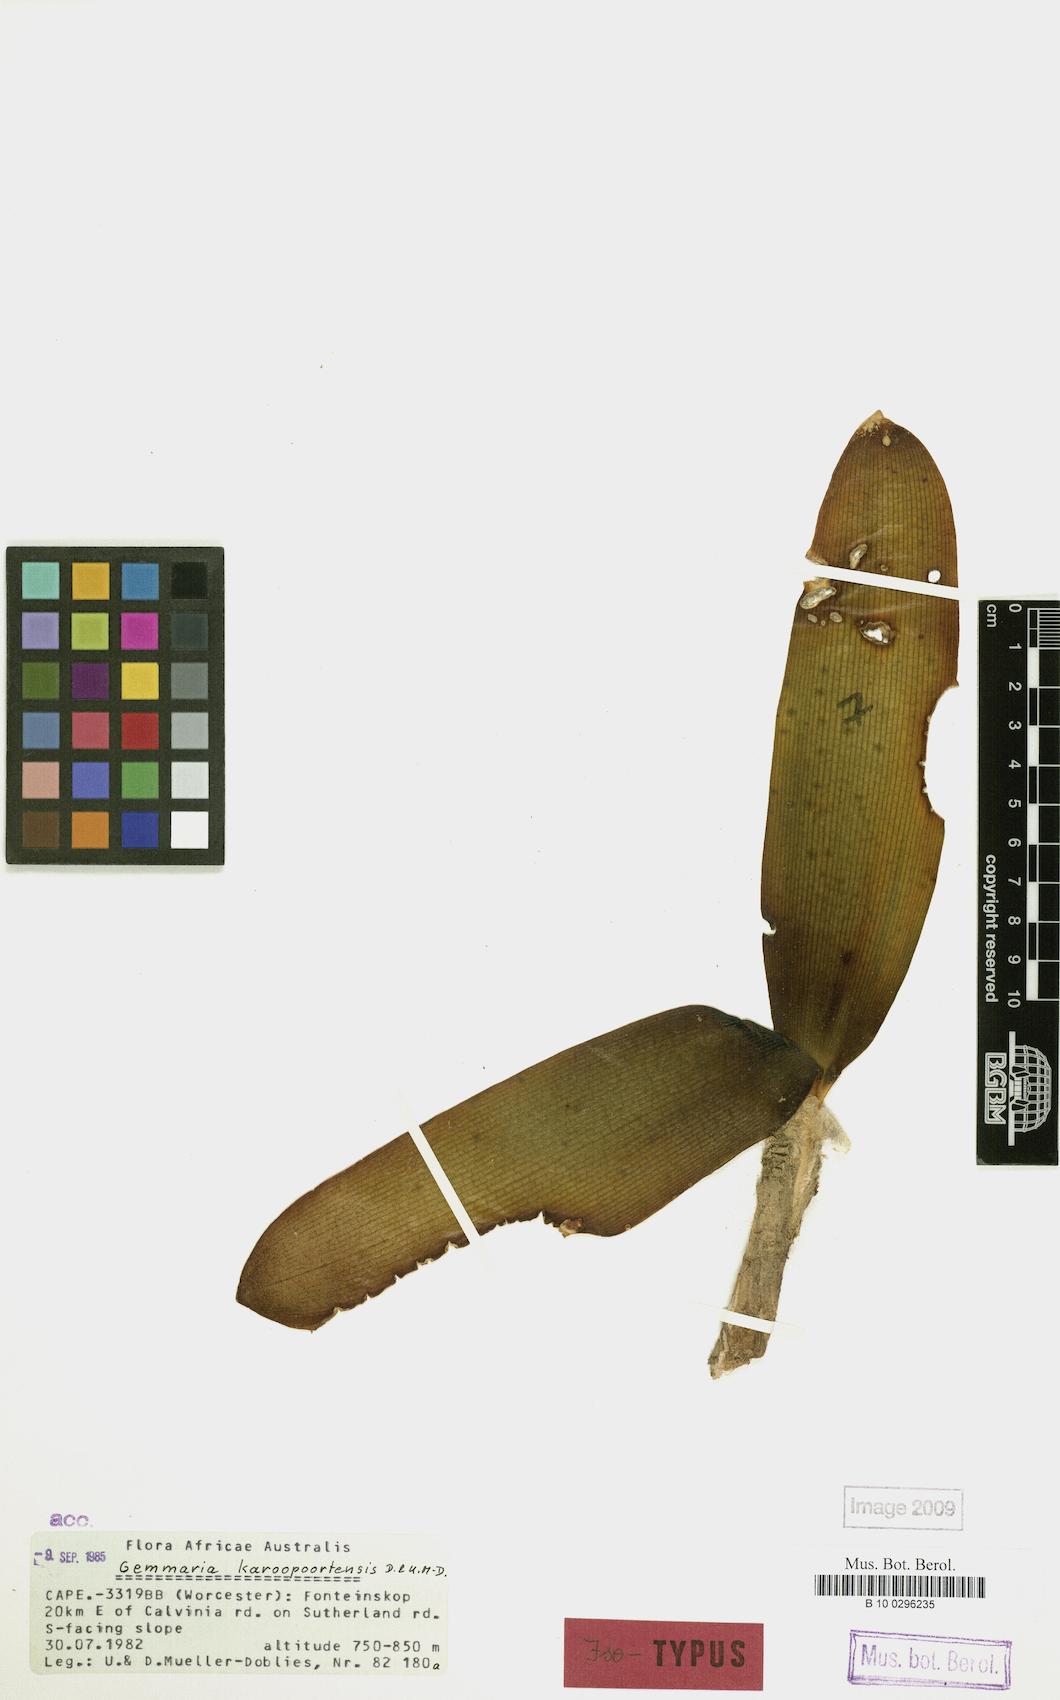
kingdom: Plantae
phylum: Tracheophyta
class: Liliopsida
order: Asparagales
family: Amaryllidaceae
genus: Strumaria
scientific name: Strumaria karoopoortensis
